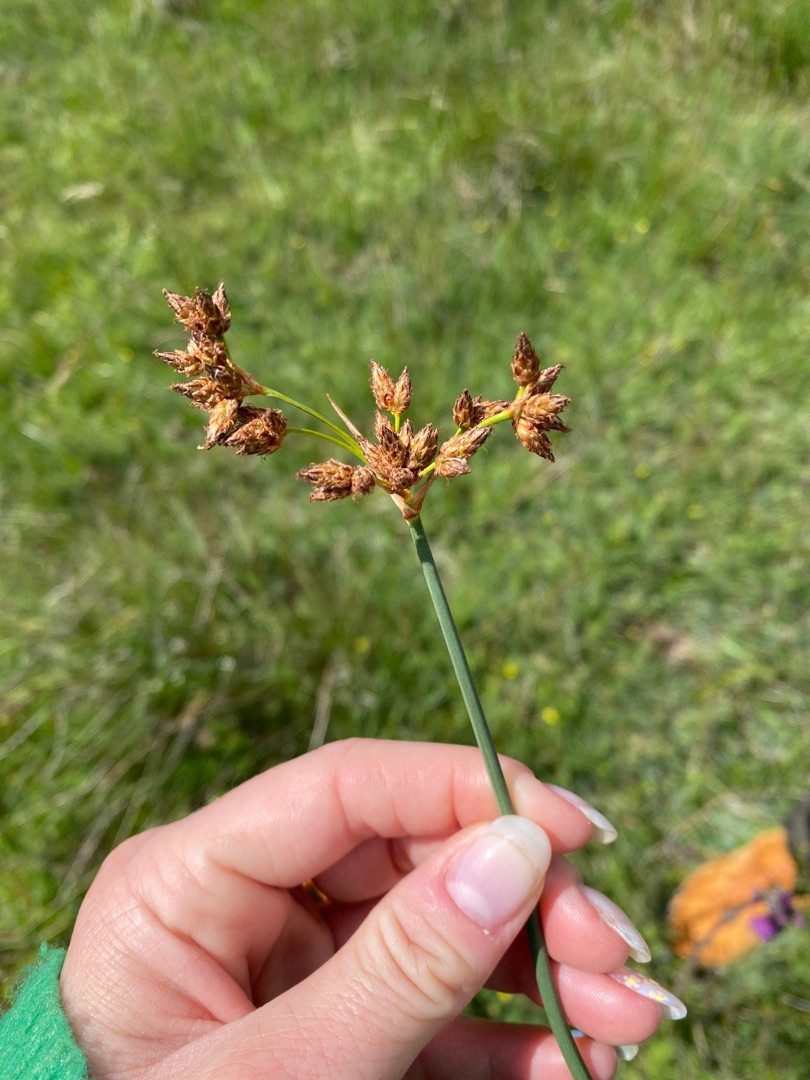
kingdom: Plantae
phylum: Tracheophyta
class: Liliopsida
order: Poales
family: Cyperaceae
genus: Schoenoplectus
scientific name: Schoenoplectus lacustris
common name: Sø-kogleaks
